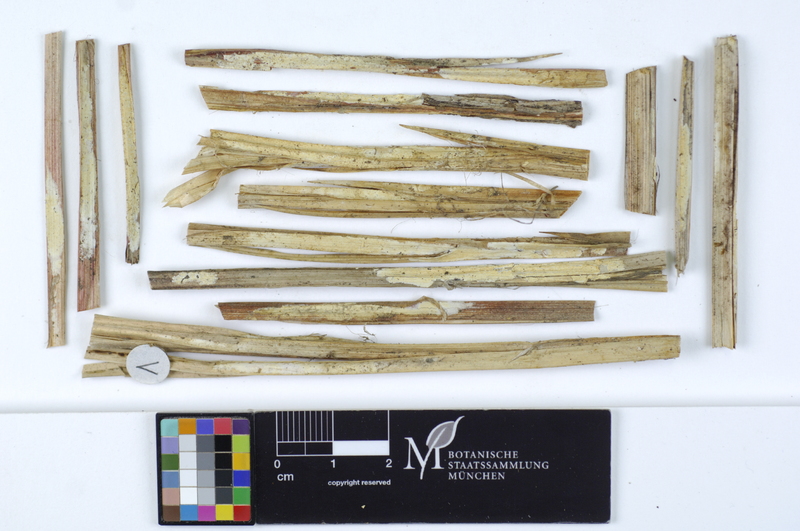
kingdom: Fungi
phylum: Basidiomycota
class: Agaricomycetes
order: Polyporales
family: Polyporaceae
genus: Epithele
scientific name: Epithele typhae
